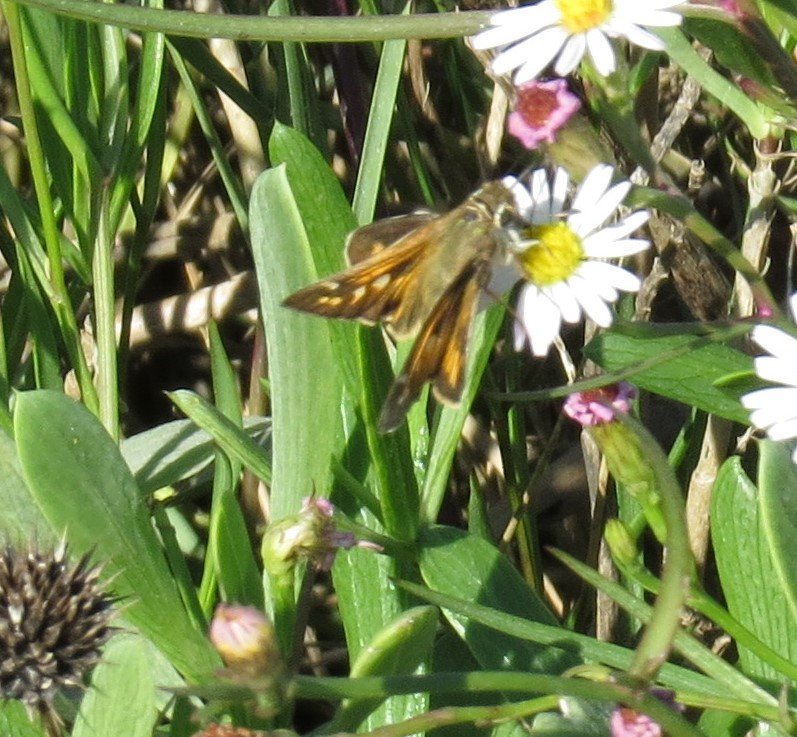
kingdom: Animalia
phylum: Arthropoda
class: Insecta
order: Lepidoptera
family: Hesperiidae
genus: Hylephila
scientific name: Hylephila phyleus
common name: Fiery Skipper
